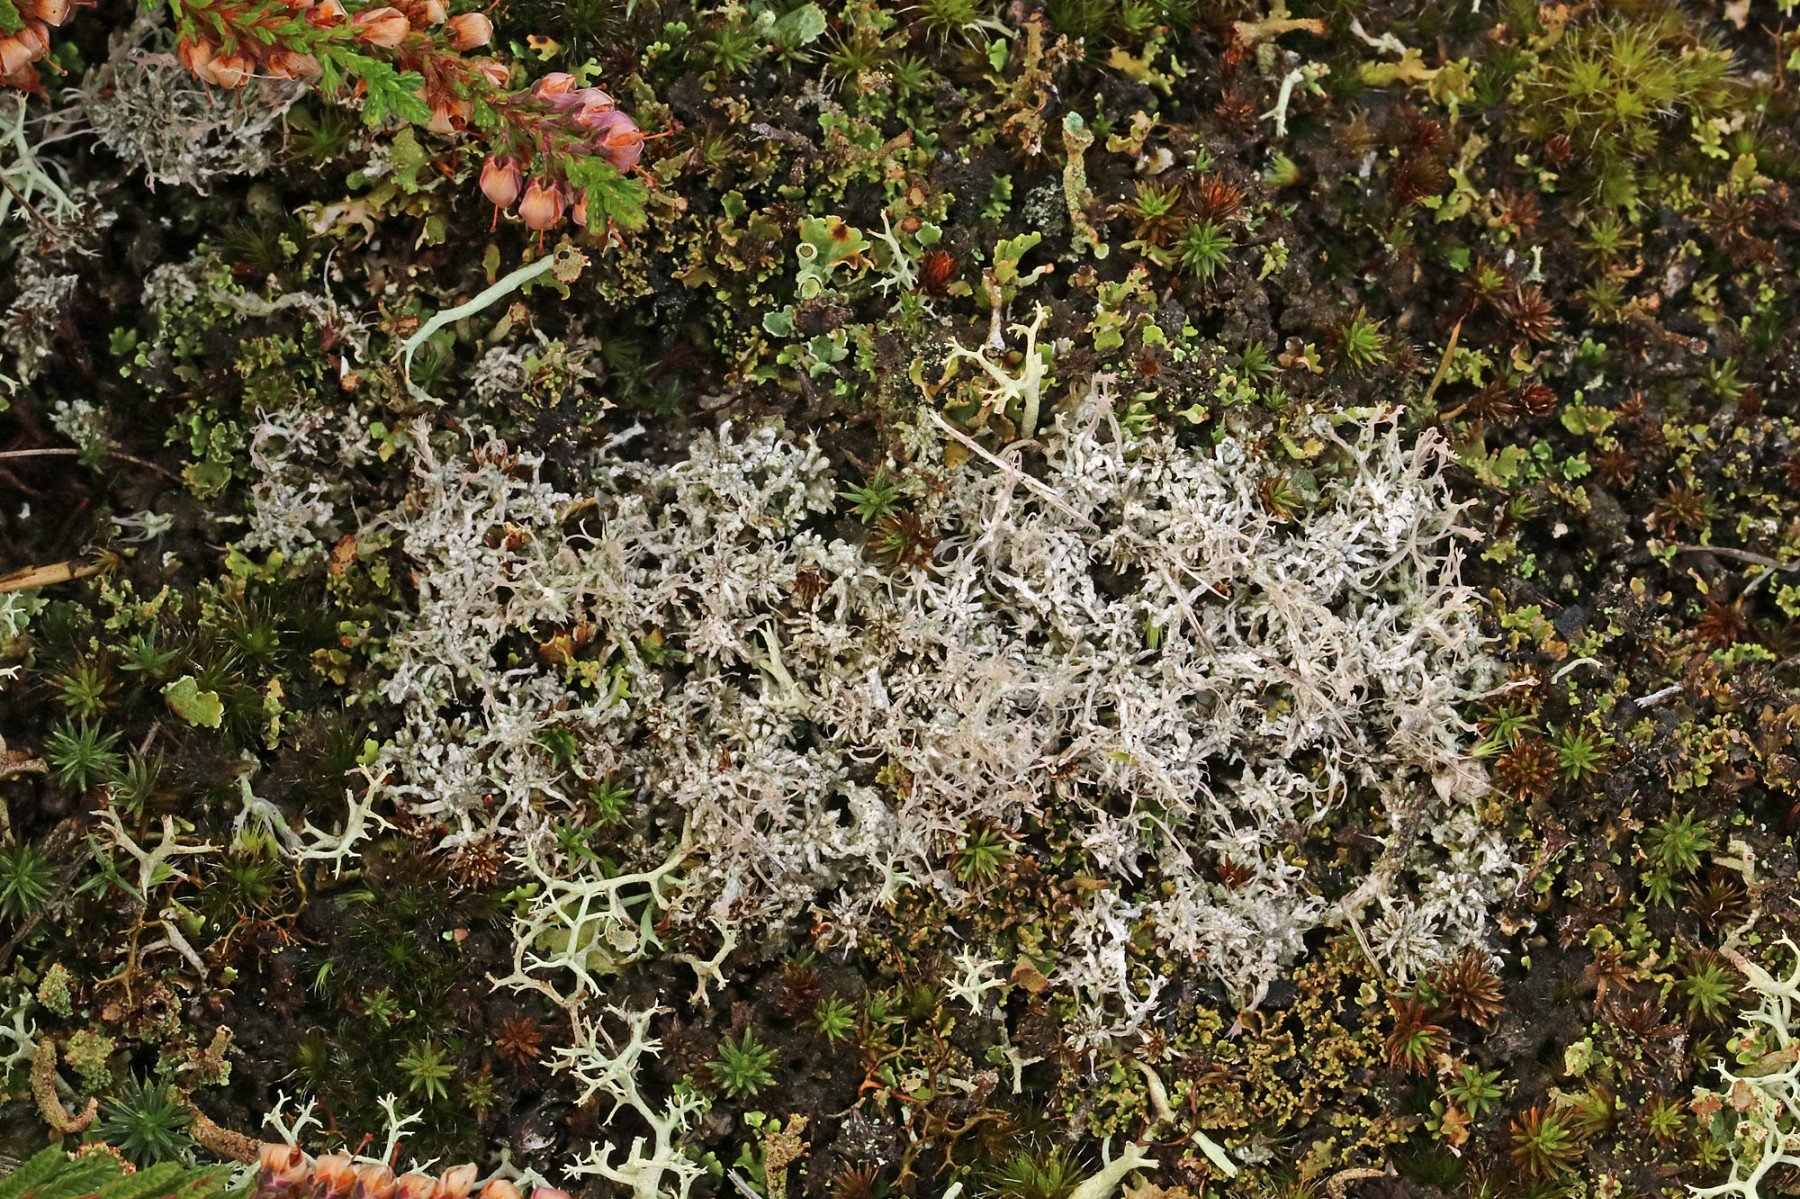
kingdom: Fungi
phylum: Ascomycota
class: Lecanoromycetes
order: Pertusariales
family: Ochrolechiaceae
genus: Ochrolechia
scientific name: Ochrolechia frigida
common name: fjeld-blegskivelav
